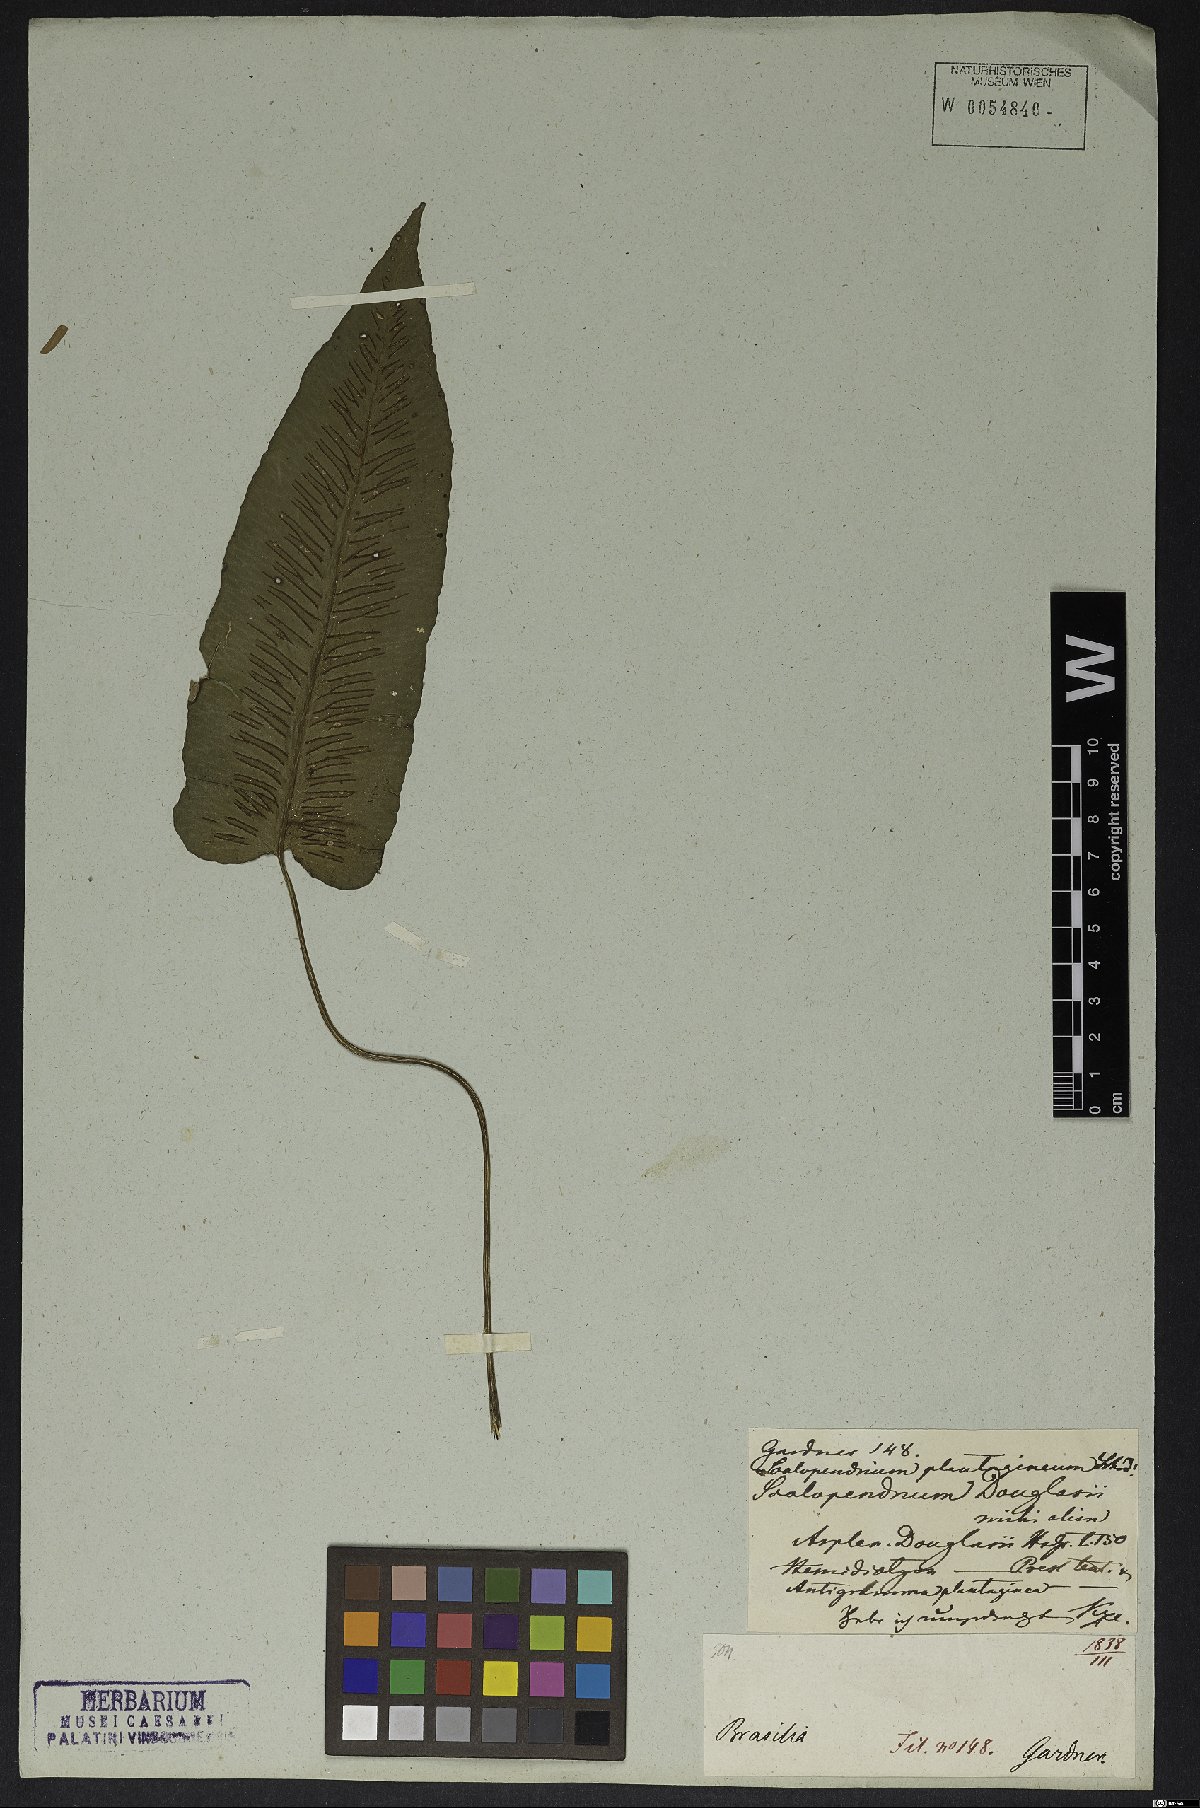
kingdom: Plantae
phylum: Tracheophyta
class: Polypodiopsida
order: Polypodiales
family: Athyriaceae
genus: Diplazium
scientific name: Diplazium plantaginifolium
